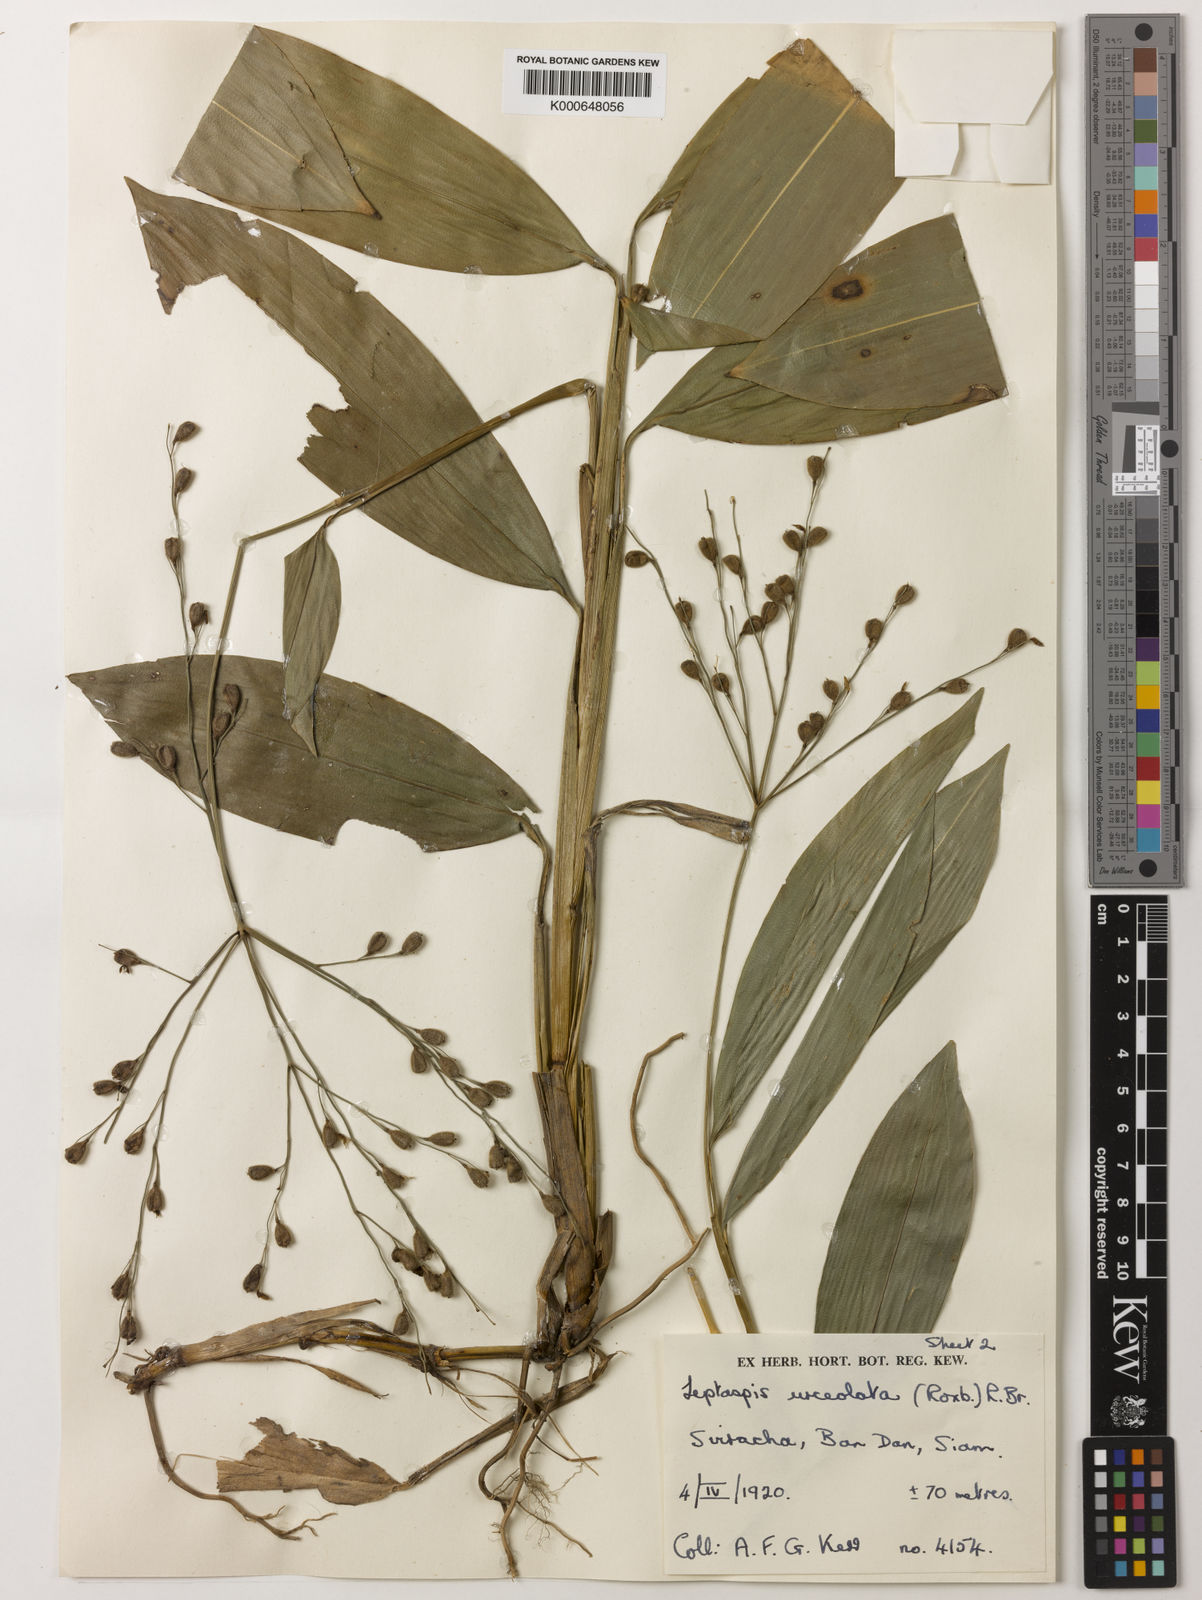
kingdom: Plantae
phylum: Tracheophyta
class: Liliopsida
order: Poales
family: Poaceae
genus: Scrotochloa
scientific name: Scrotochloa urceolata
